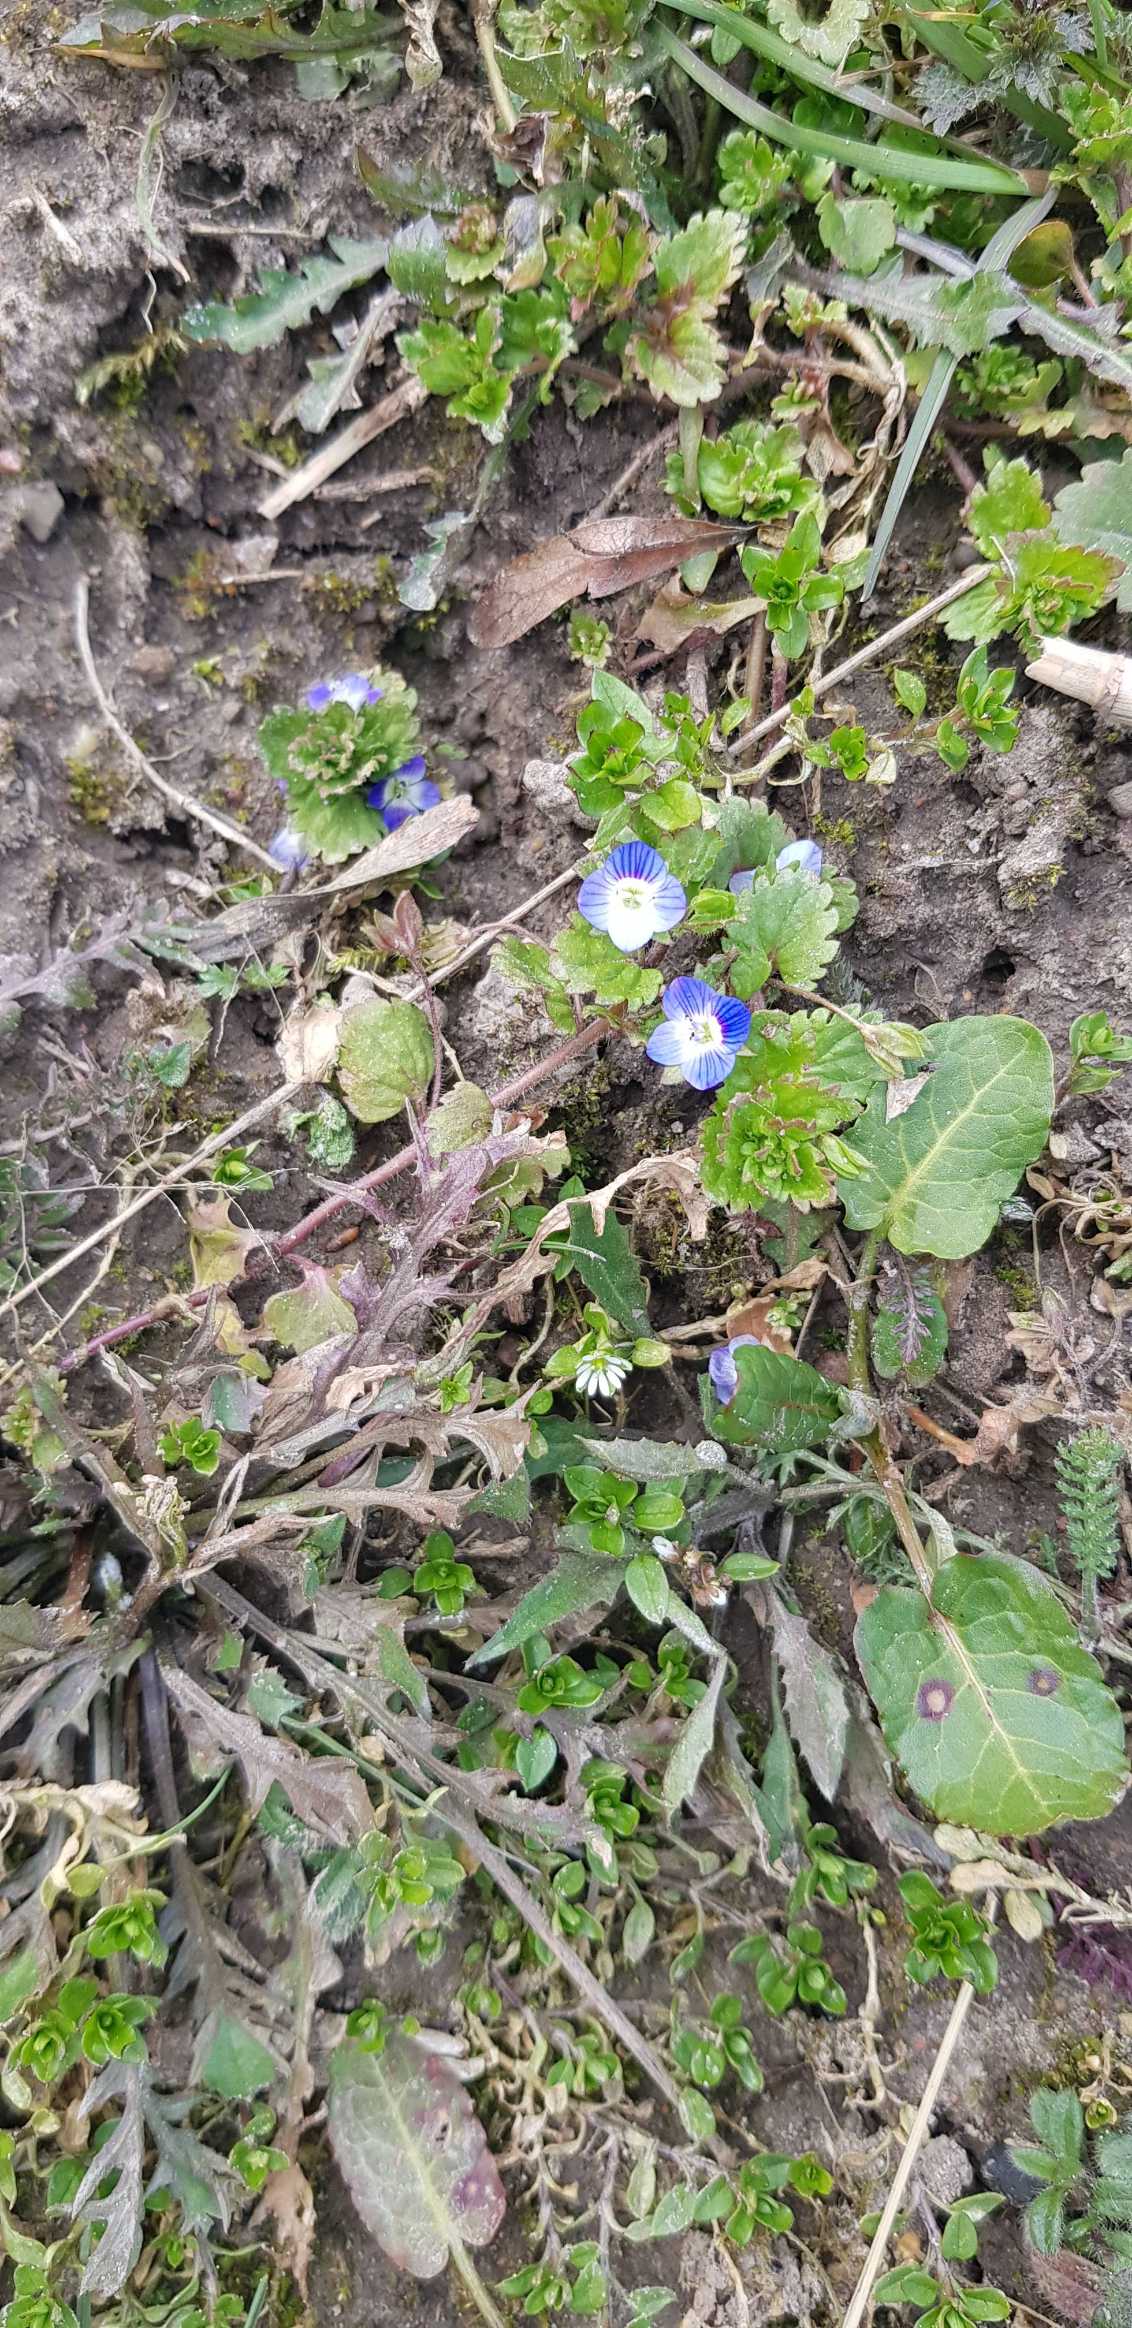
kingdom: Plantae
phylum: Tracheophyta
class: Magnoliopsida
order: Lamiales
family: Plantaginaceae
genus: Veronica
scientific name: Veronica persica
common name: Storkronet ærenpris
